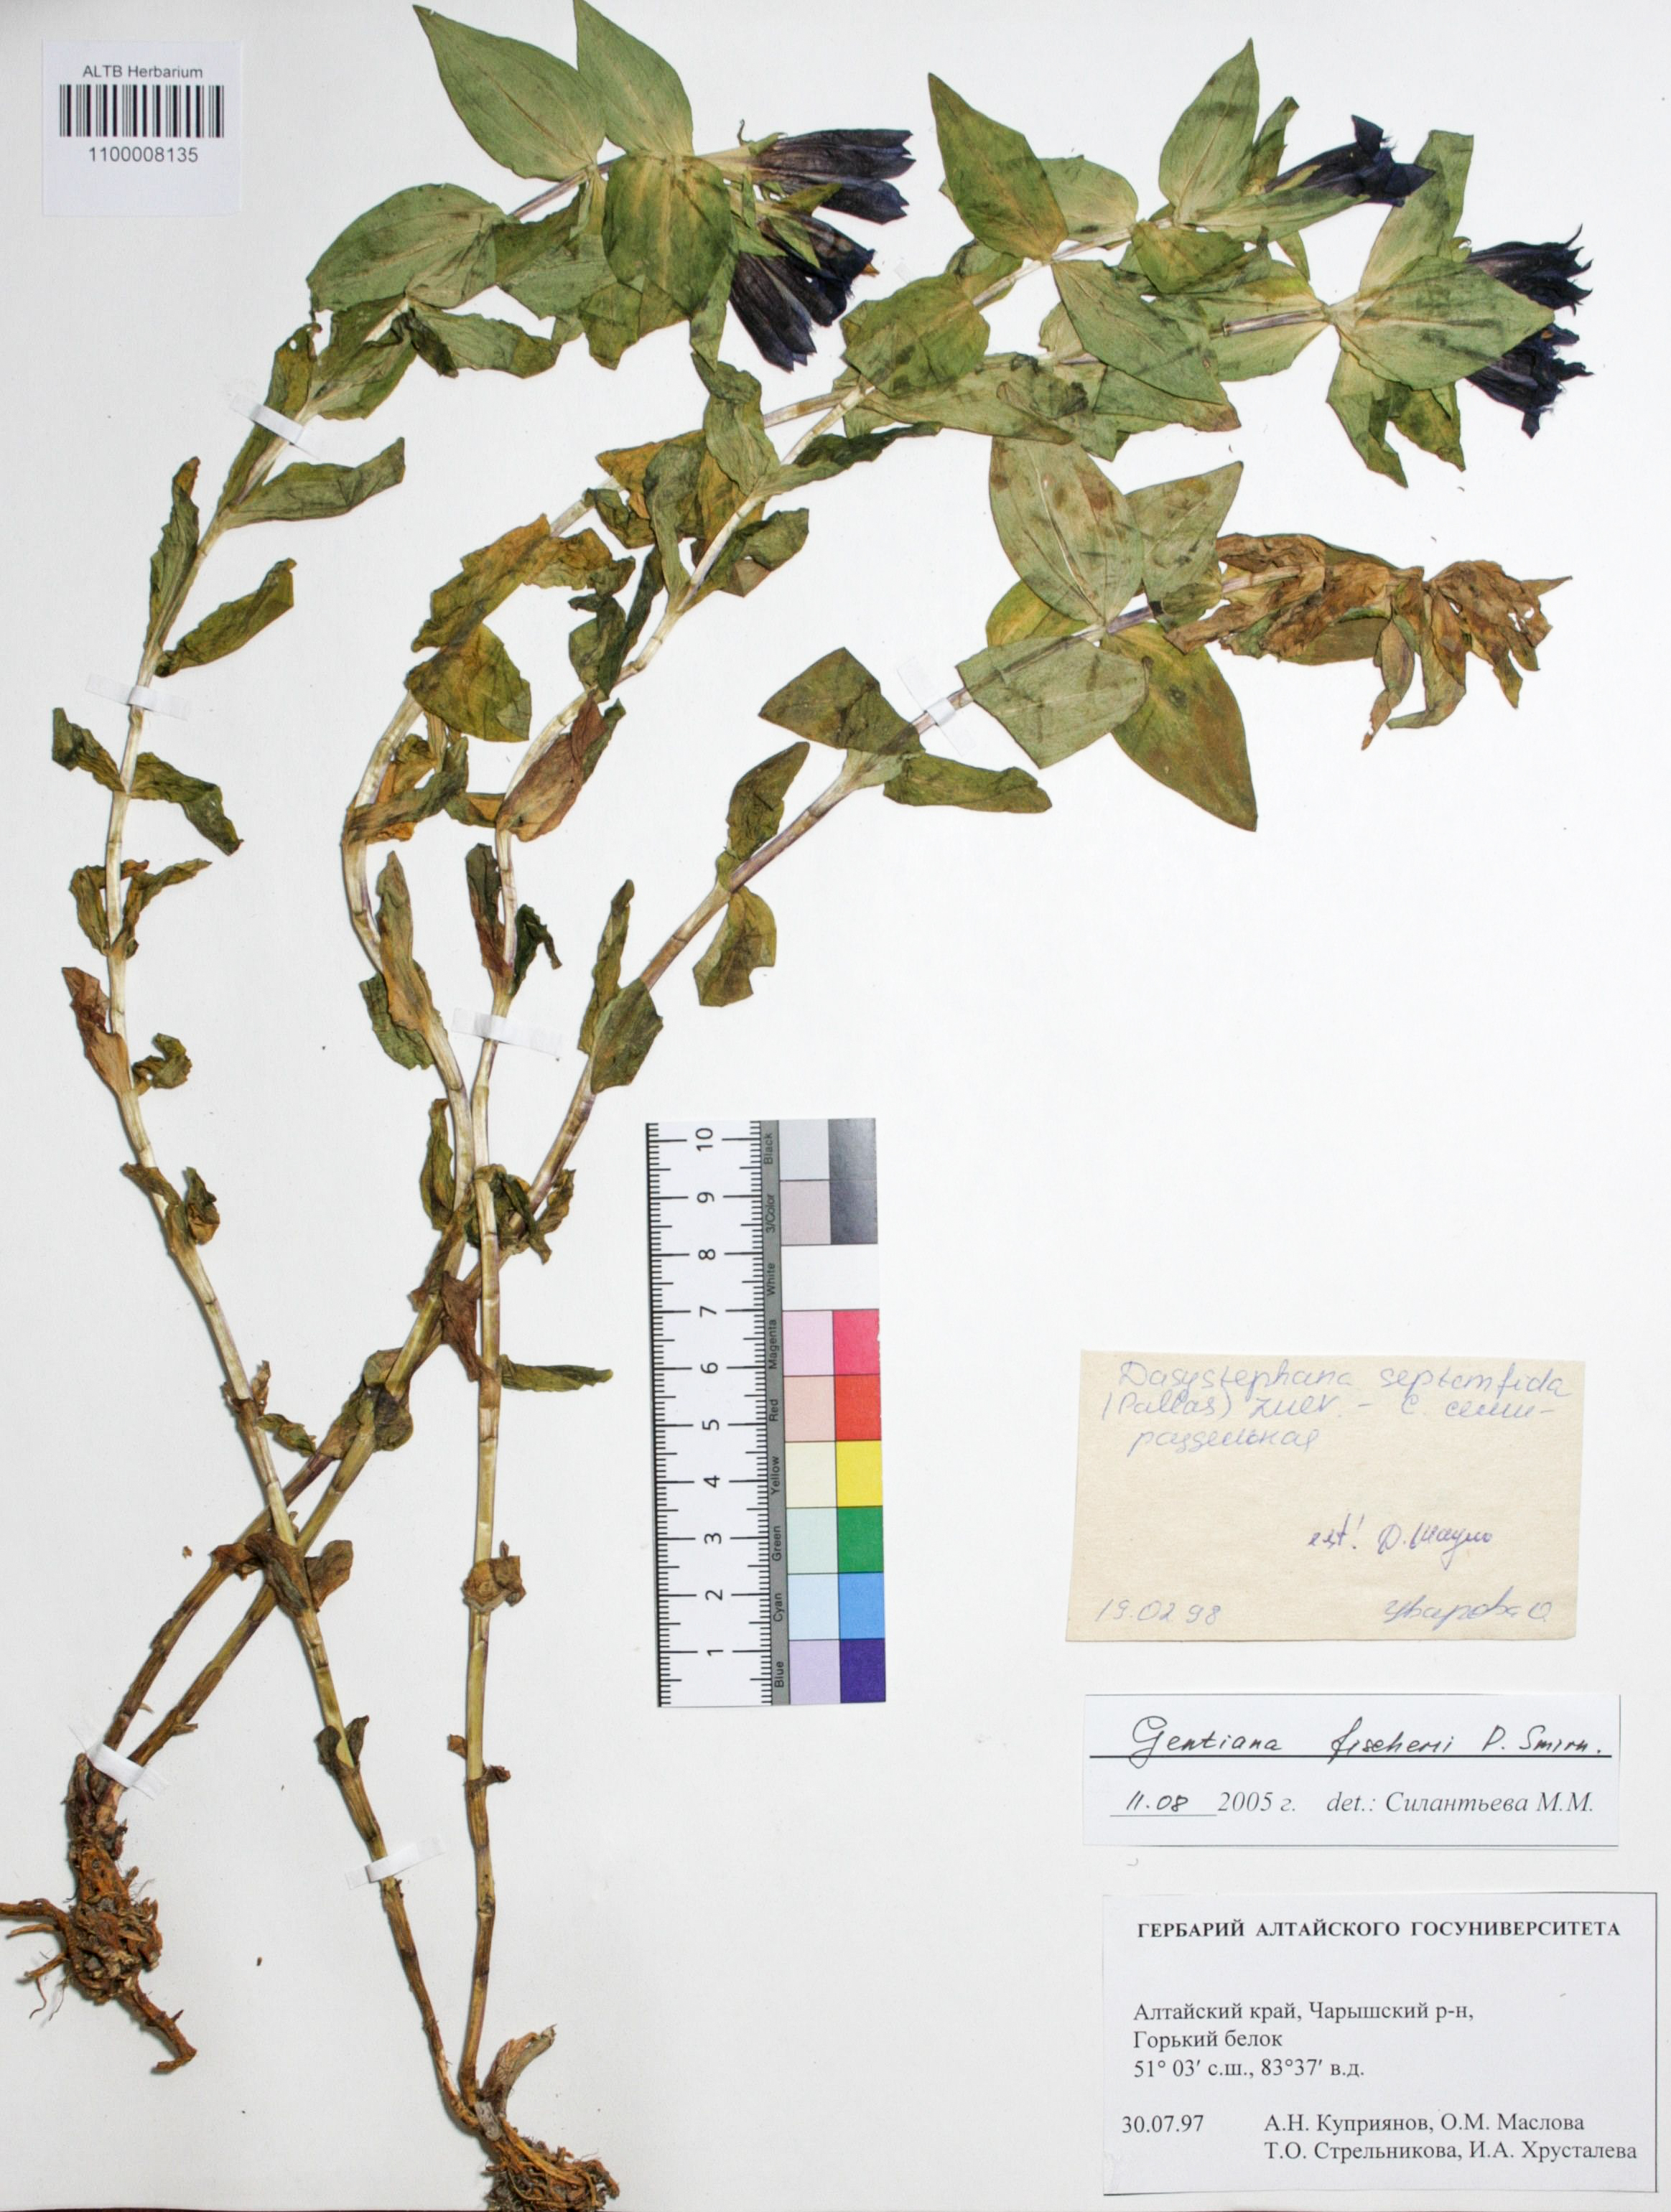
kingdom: Plantae
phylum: Tracheophyta
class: Magnoliopsida
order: Gentianales
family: Gentianaceae
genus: Gentiana
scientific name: Gentiana dschungarica
